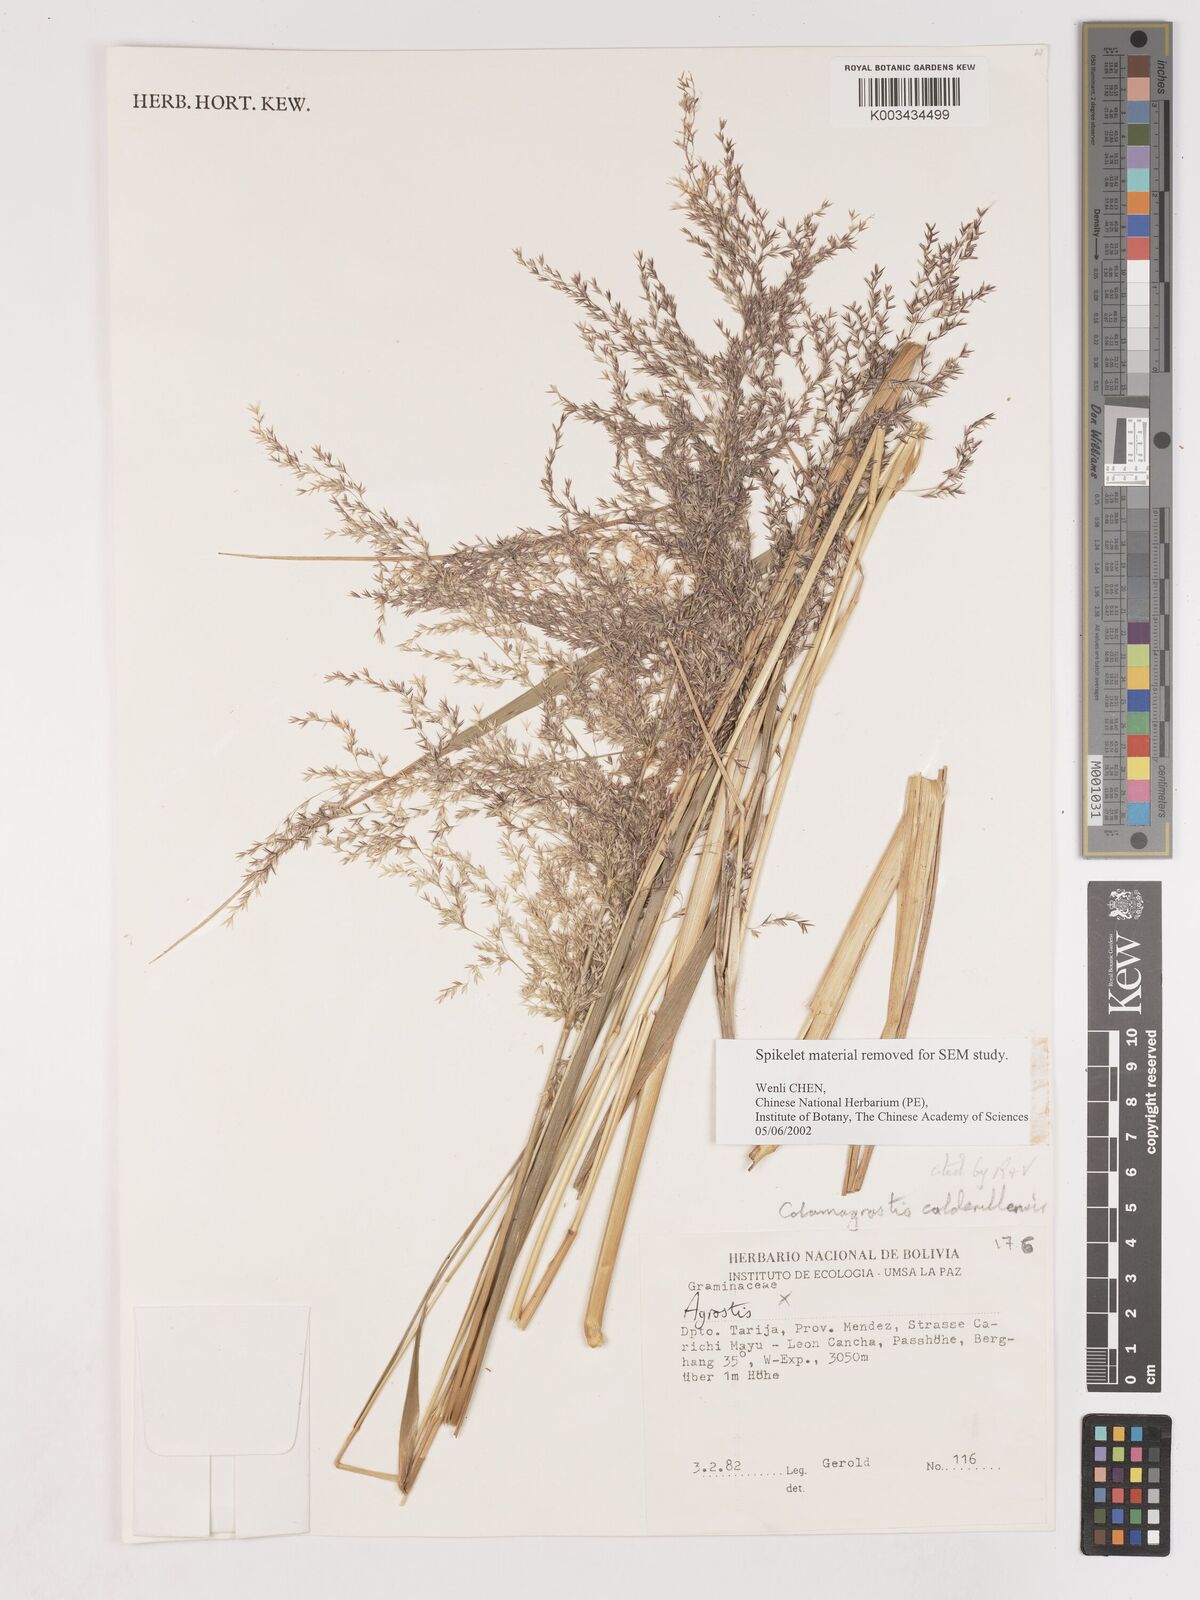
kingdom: Plantae
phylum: Tracheophyta
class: Liliopsida
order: Poales
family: Poaceae
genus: Cinnagrostis
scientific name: Cinnagrostis calderillensis
